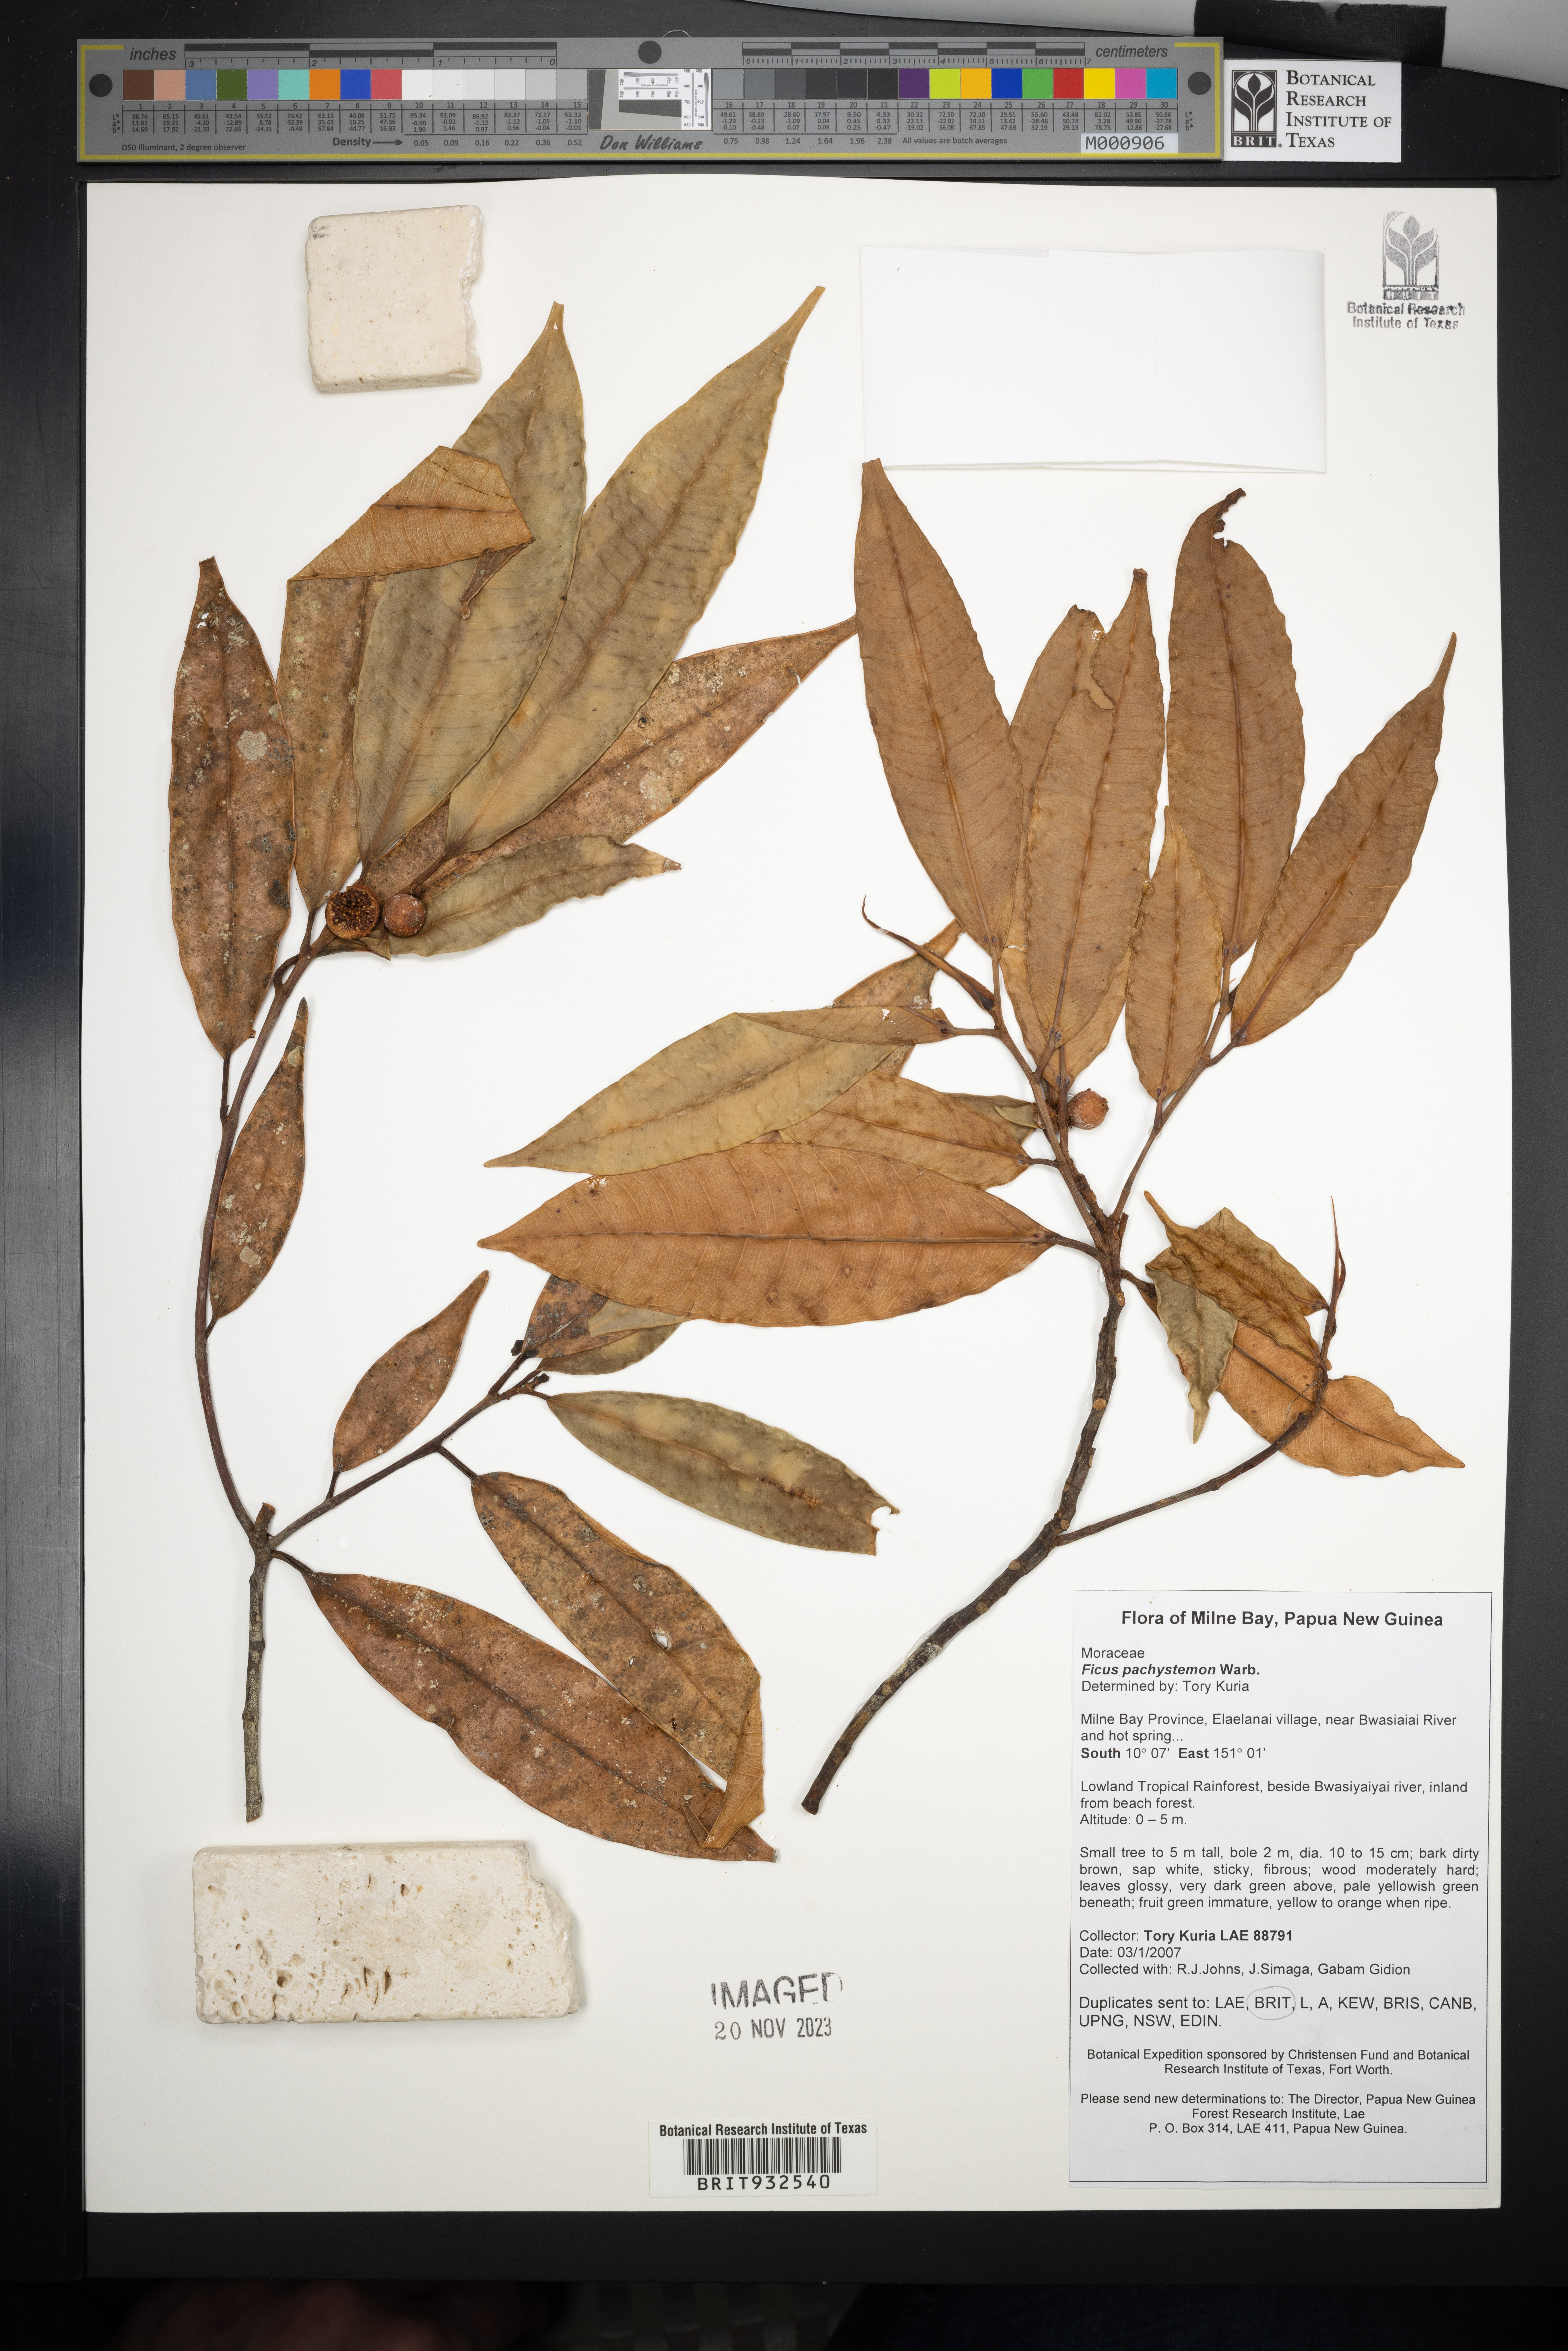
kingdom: Plantae
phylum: Tracheophyta
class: Magnoliopsida
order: Rosales
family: Moraceae
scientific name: Moraceae
